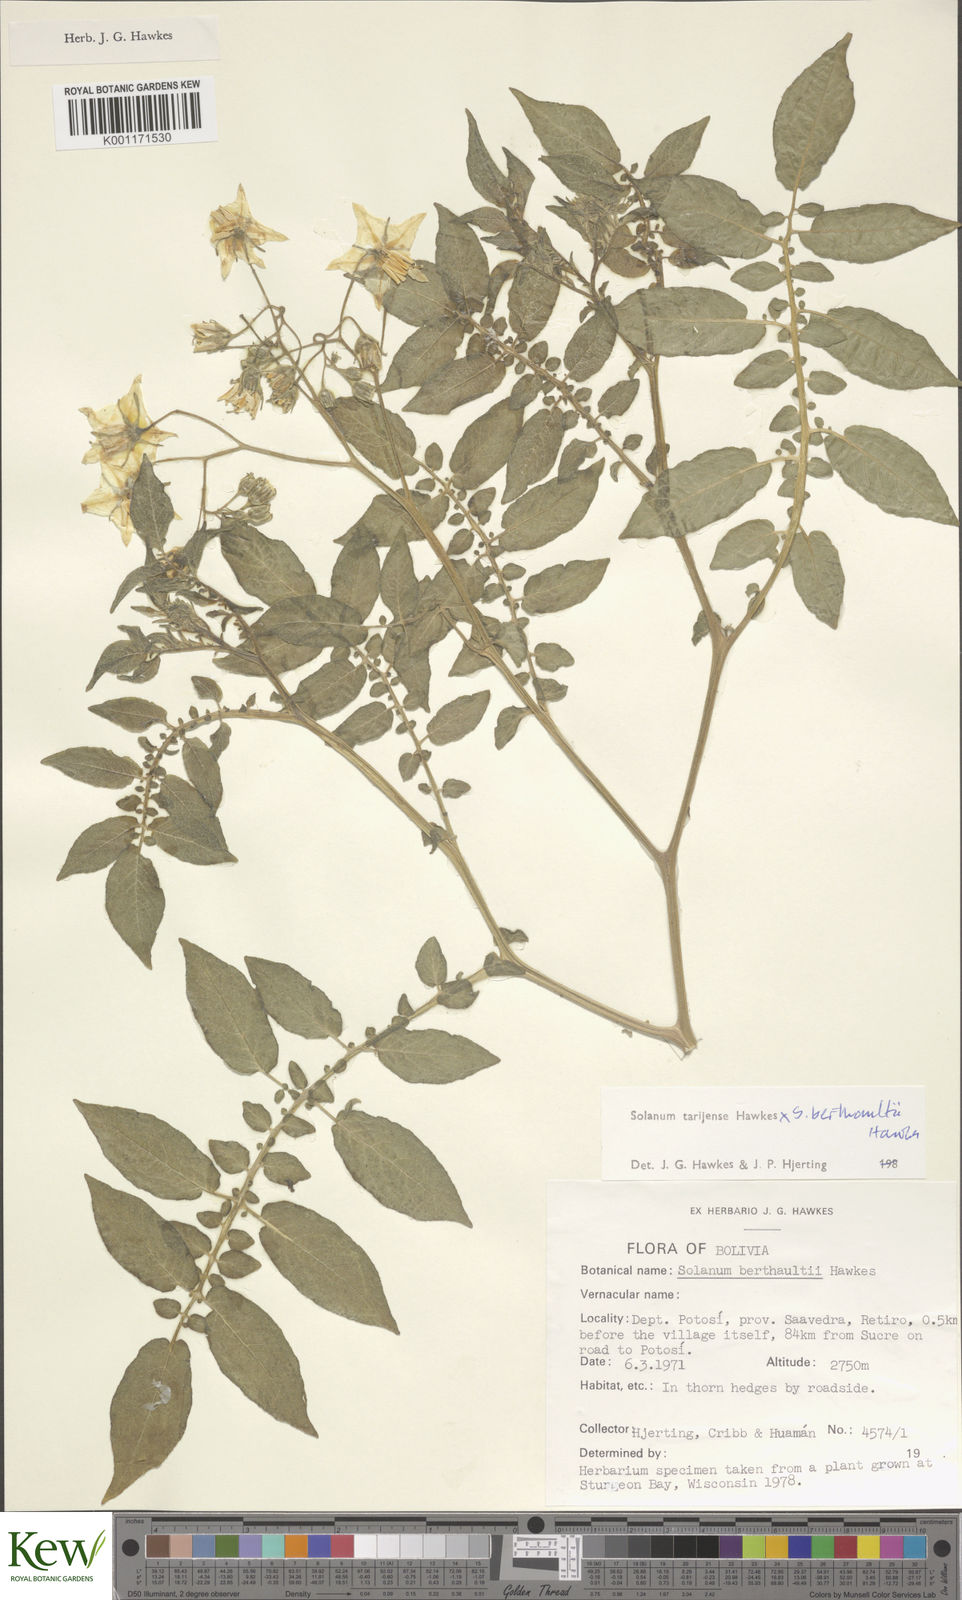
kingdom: Plantae
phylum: Tracheophyta
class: Magnoliopsida
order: Solanales
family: Solanaceae
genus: Solanum
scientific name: Solanum tarijense
